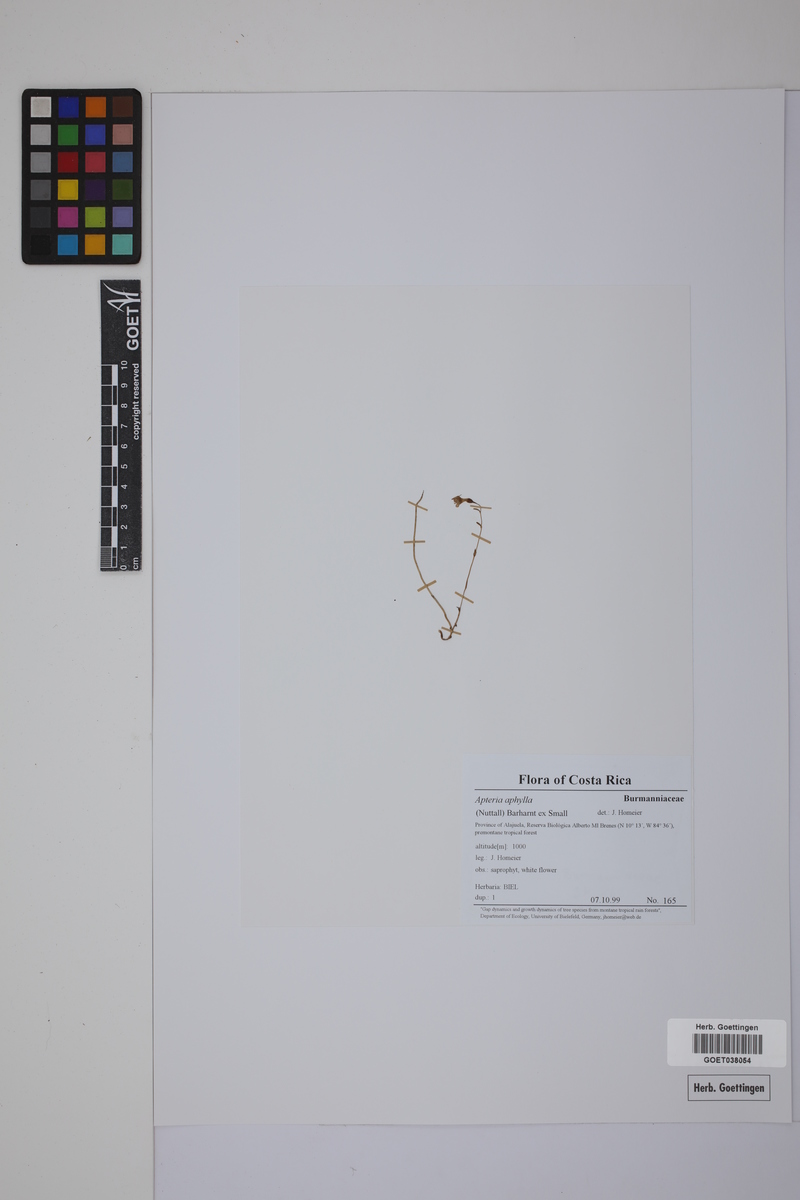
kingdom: Plantae
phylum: Tracheophyta
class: Liliopsida
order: Dioscoreales
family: Burmanniaceae
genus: Apteria
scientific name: Apteria aphylla
